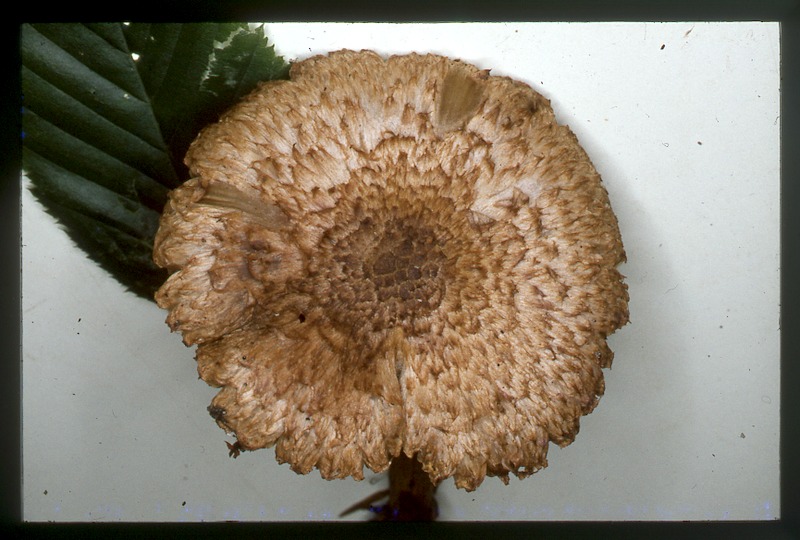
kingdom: Fungi
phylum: Basidiomycota
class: Agaricomycetes
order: Agaricales
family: Inocybaceae
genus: Inosperma
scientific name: Inosperma bongardii
